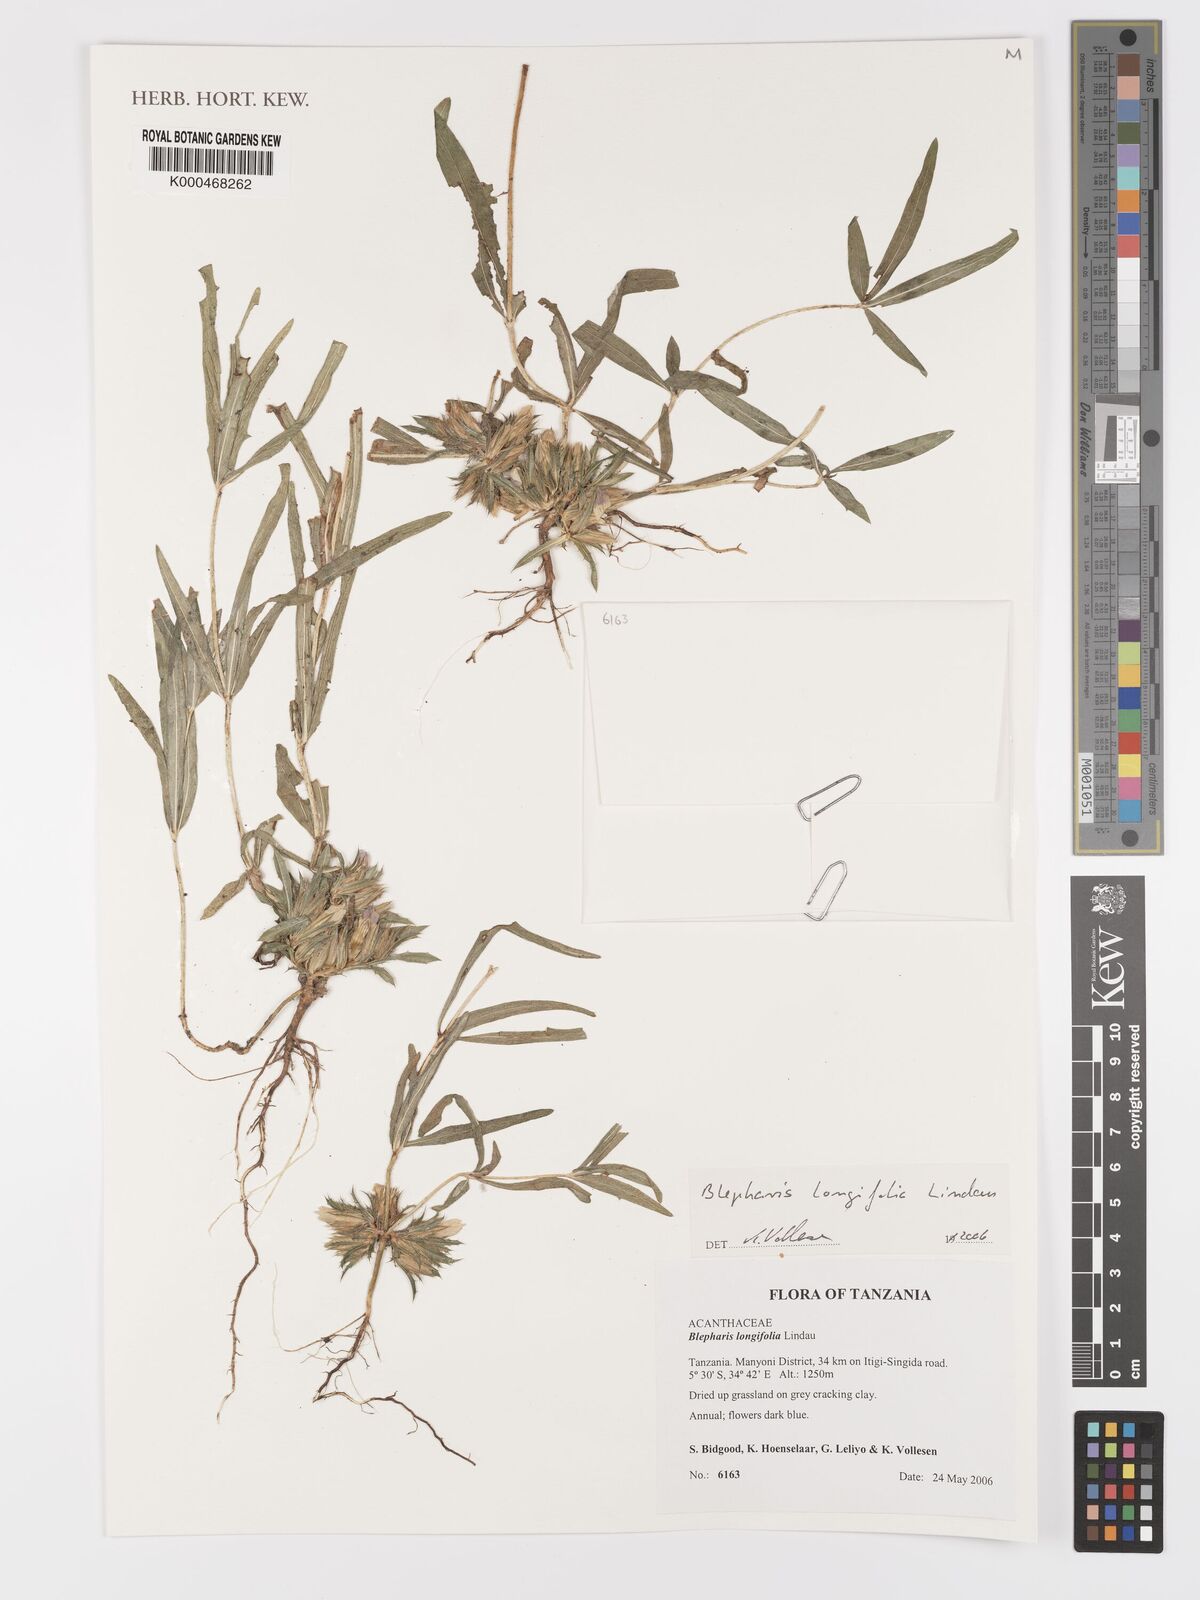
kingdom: Plantae
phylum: Tracheophyta
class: Magnoliopsida
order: Lamiales
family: Acanthaceae
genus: Blepharis
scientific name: Blepharis longifolia
